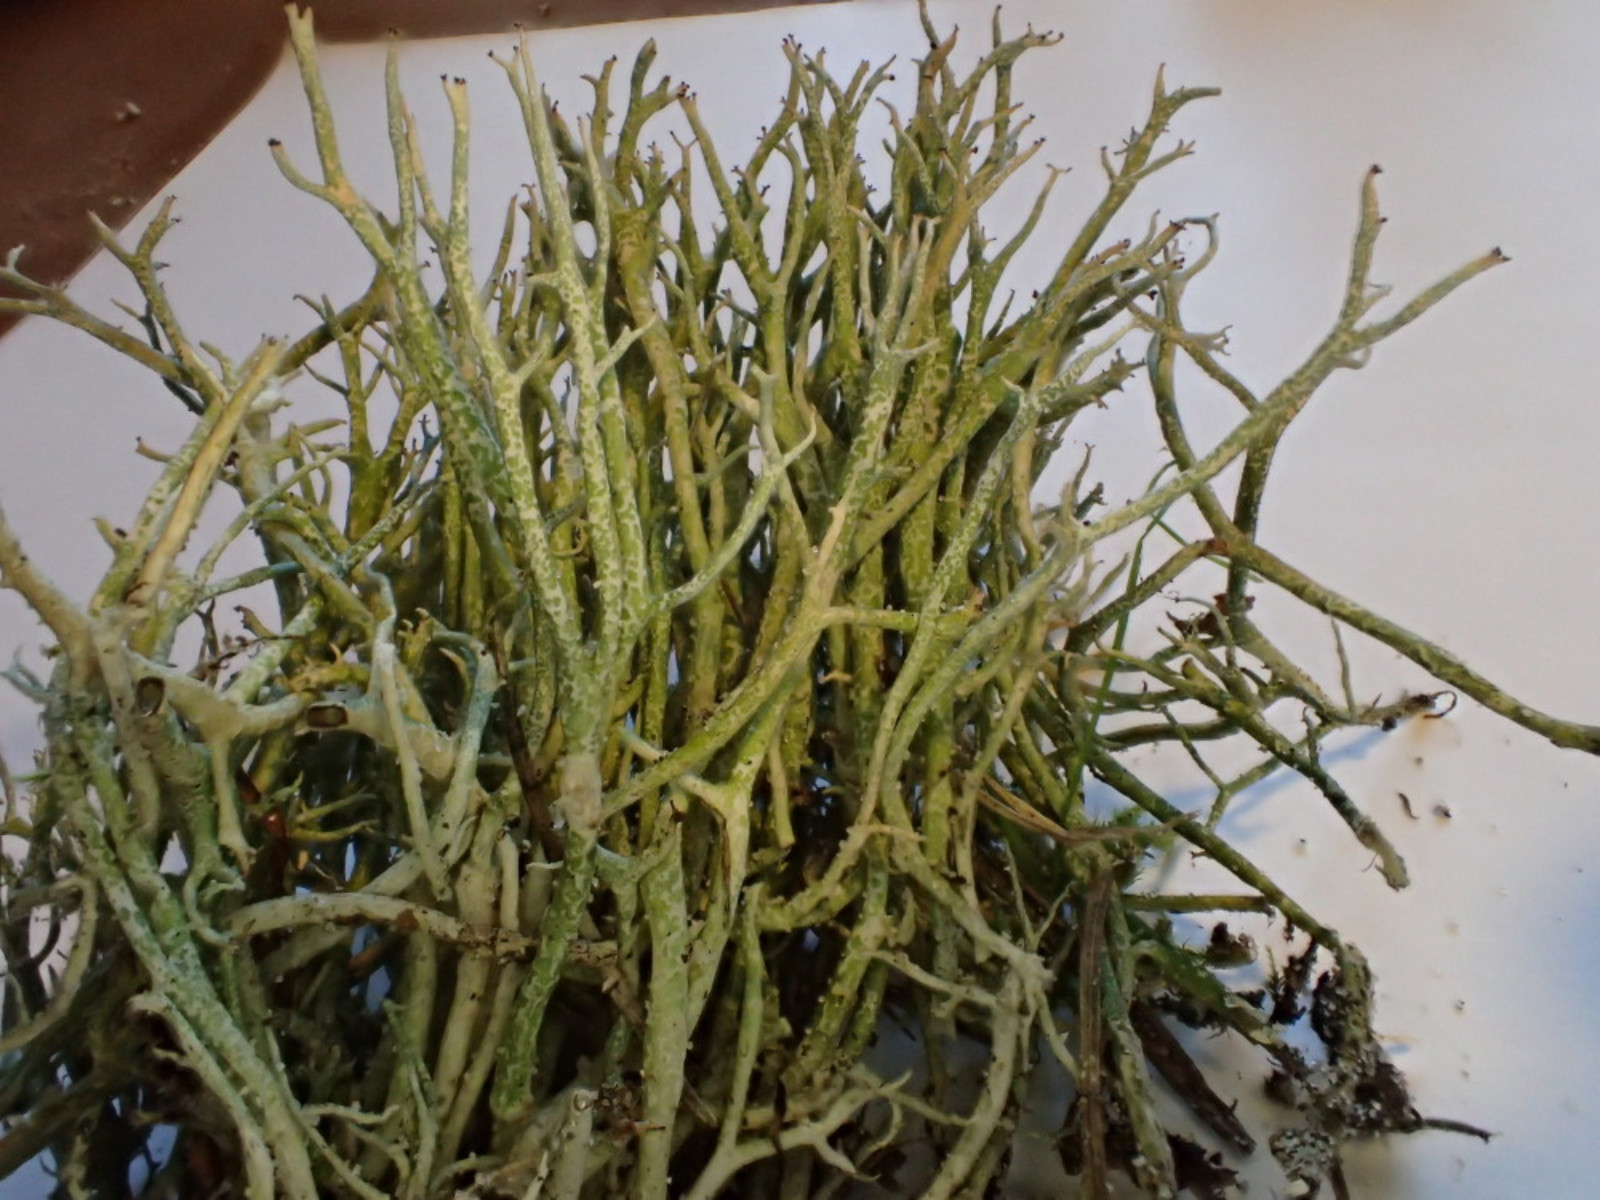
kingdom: Fungi
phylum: Ascomycota
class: Lecanoromycetes
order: Lecanorales
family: Cladoniaceae
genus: Cladonia
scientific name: Cladonia rangiformis
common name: spættet bægerlav
